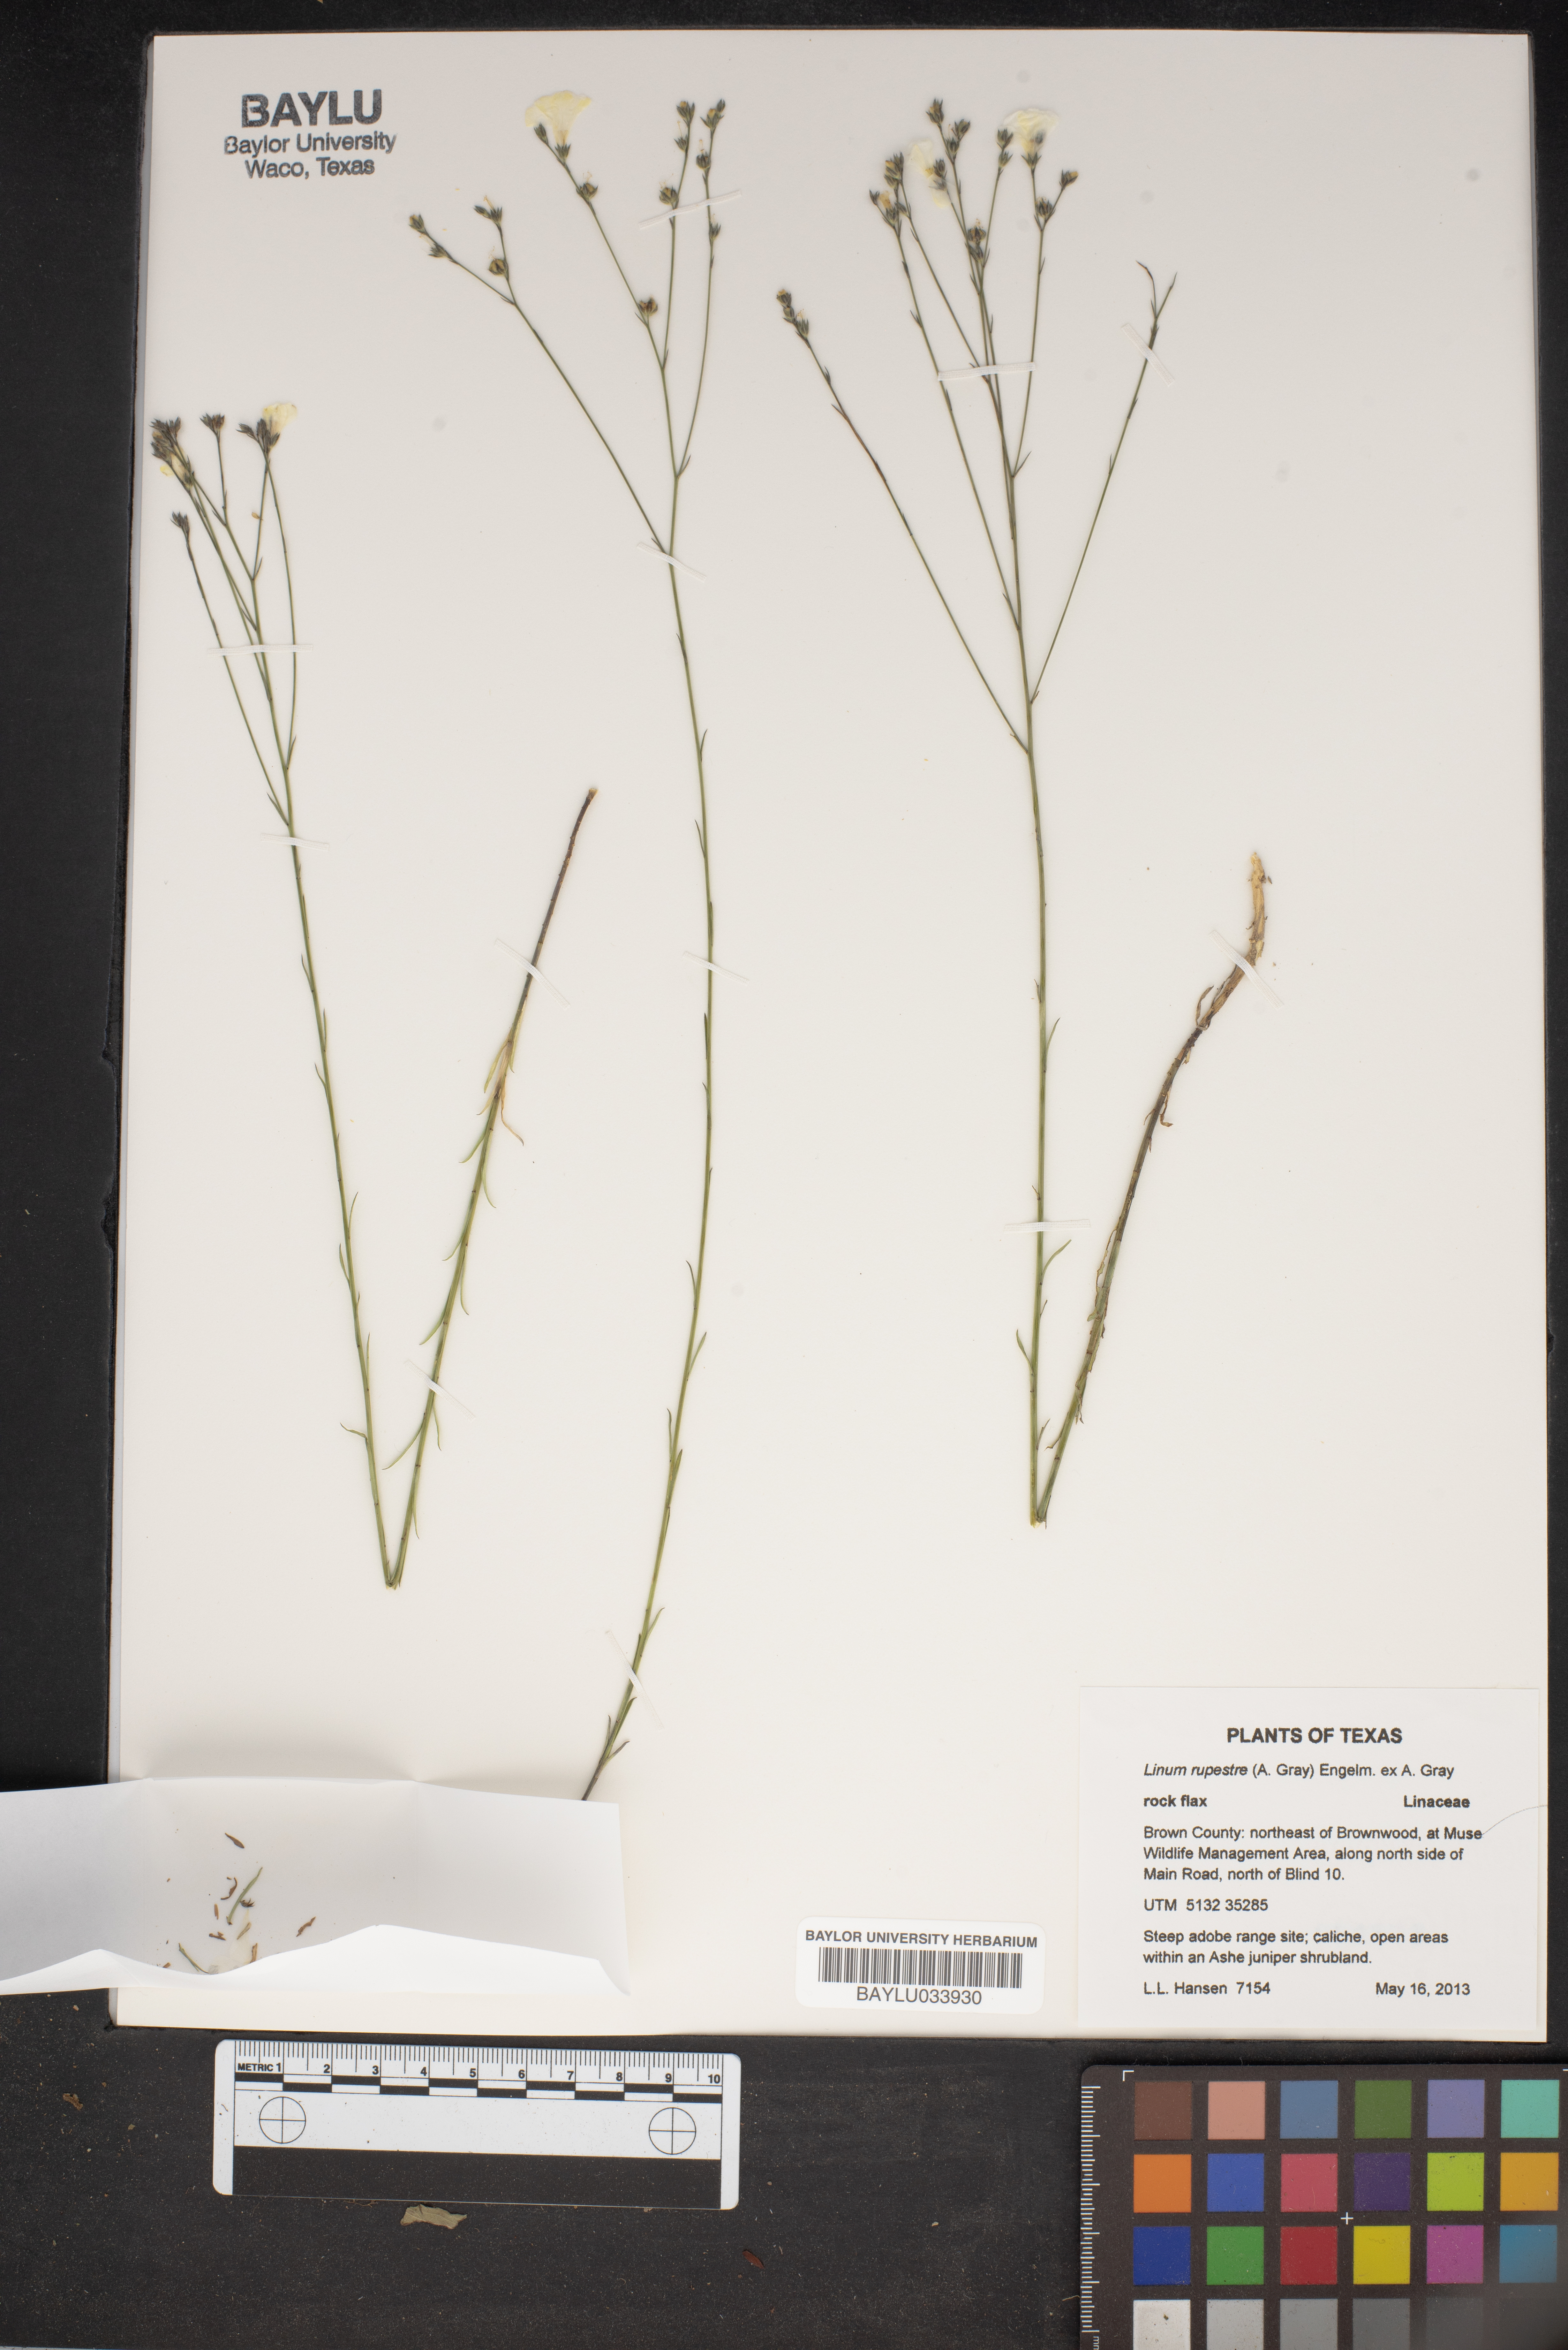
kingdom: Plantae
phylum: Tracheophyta
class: Magnoliopsida
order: Malpighiales
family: Linaceae
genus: Linum
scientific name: Linum rupestre
